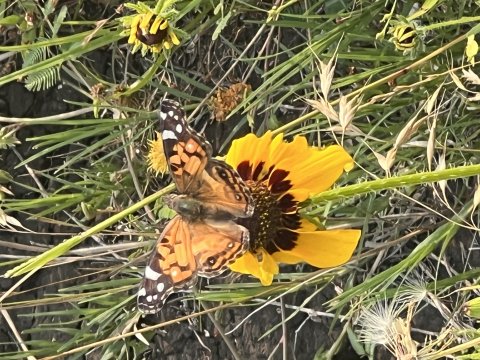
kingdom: Animalia
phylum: Arthropoda
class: Insecta
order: Lepidoptera
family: Nymphalidae
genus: Vanessa
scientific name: Vanessa virginiensis
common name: American Lady
